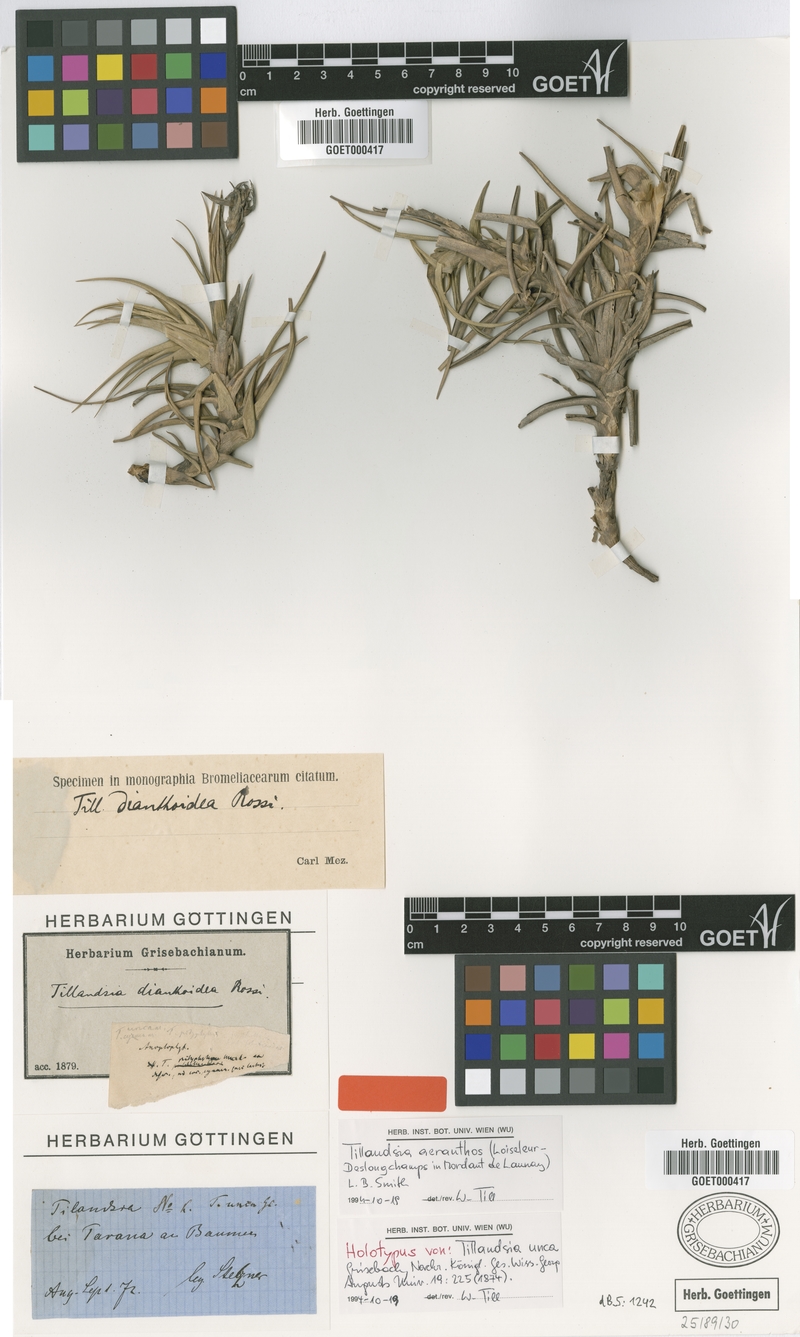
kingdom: Plantae
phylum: Tracheophyta
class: Liliopsida
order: Poales
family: Bromeliaceae
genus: Tillandsia
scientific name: Tillandsia aeranthos
